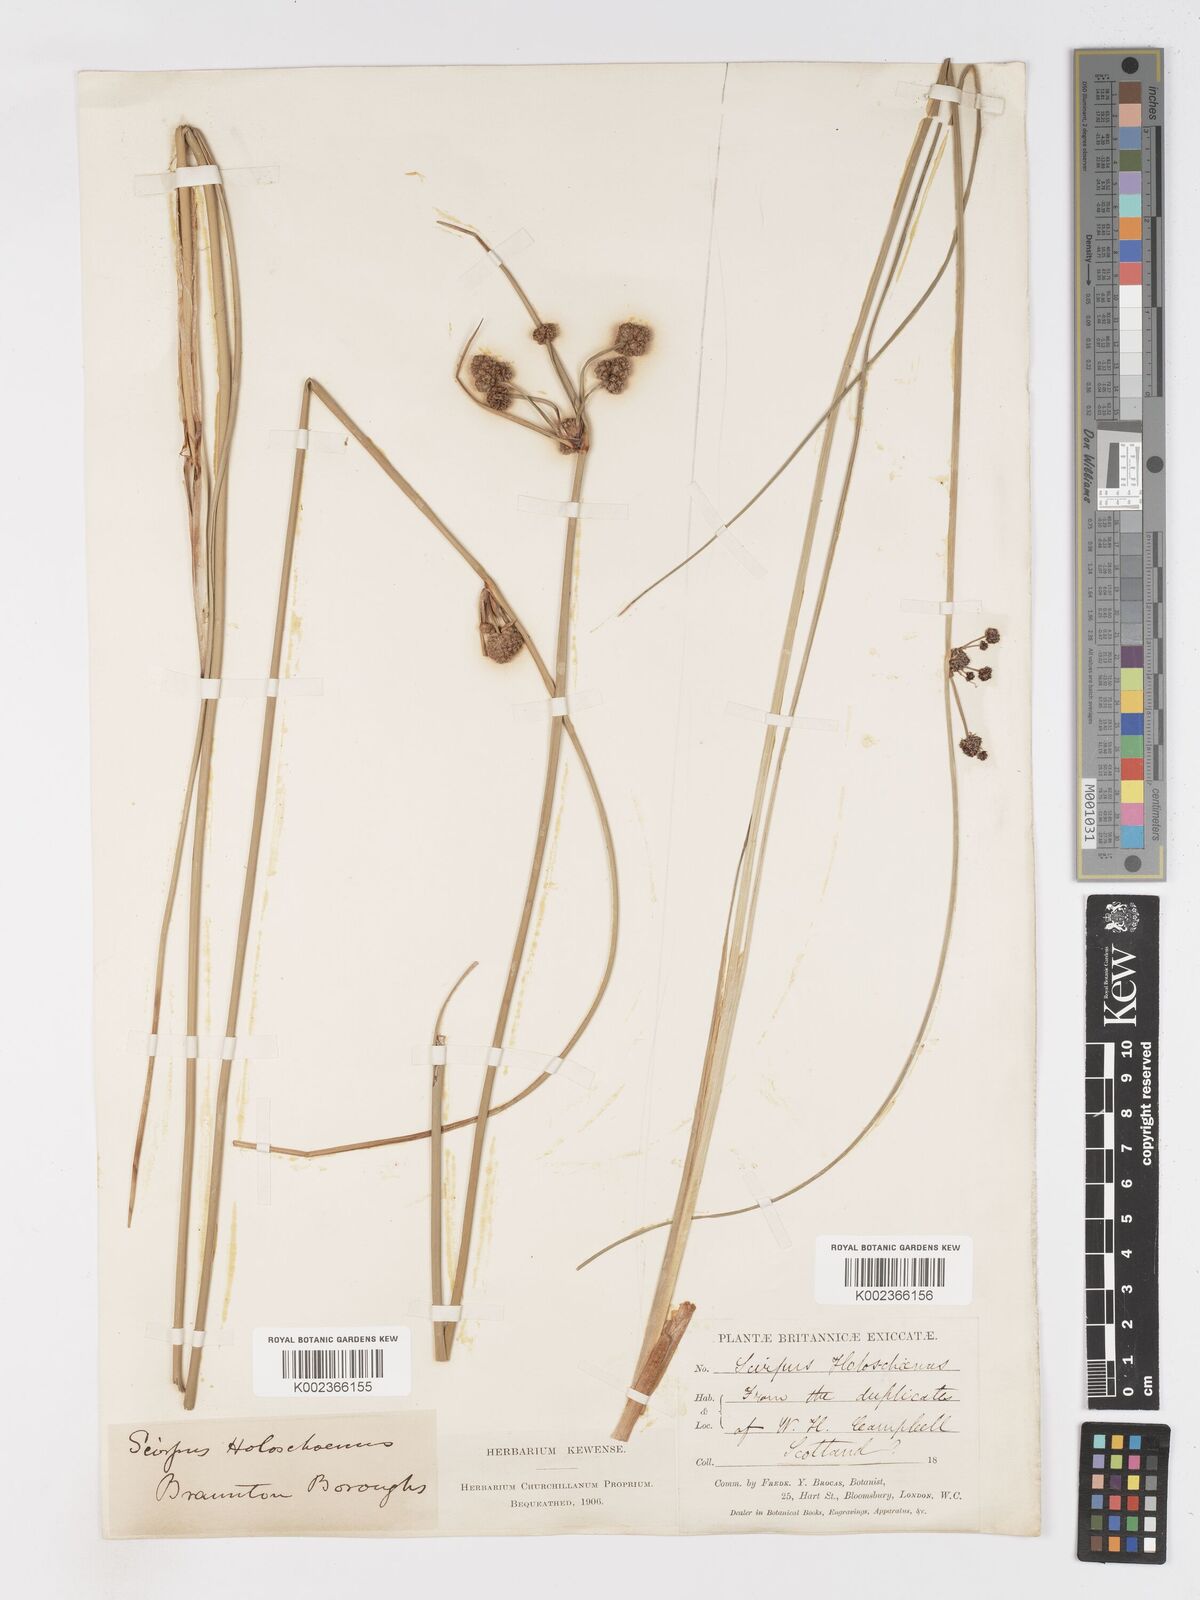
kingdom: Plantae
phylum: Tracheophyta
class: Liliopsida
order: Poales
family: Cyperaceae
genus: Scirpoides
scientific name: Scirpoides holoschoenus
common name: Round-headed club-rush
